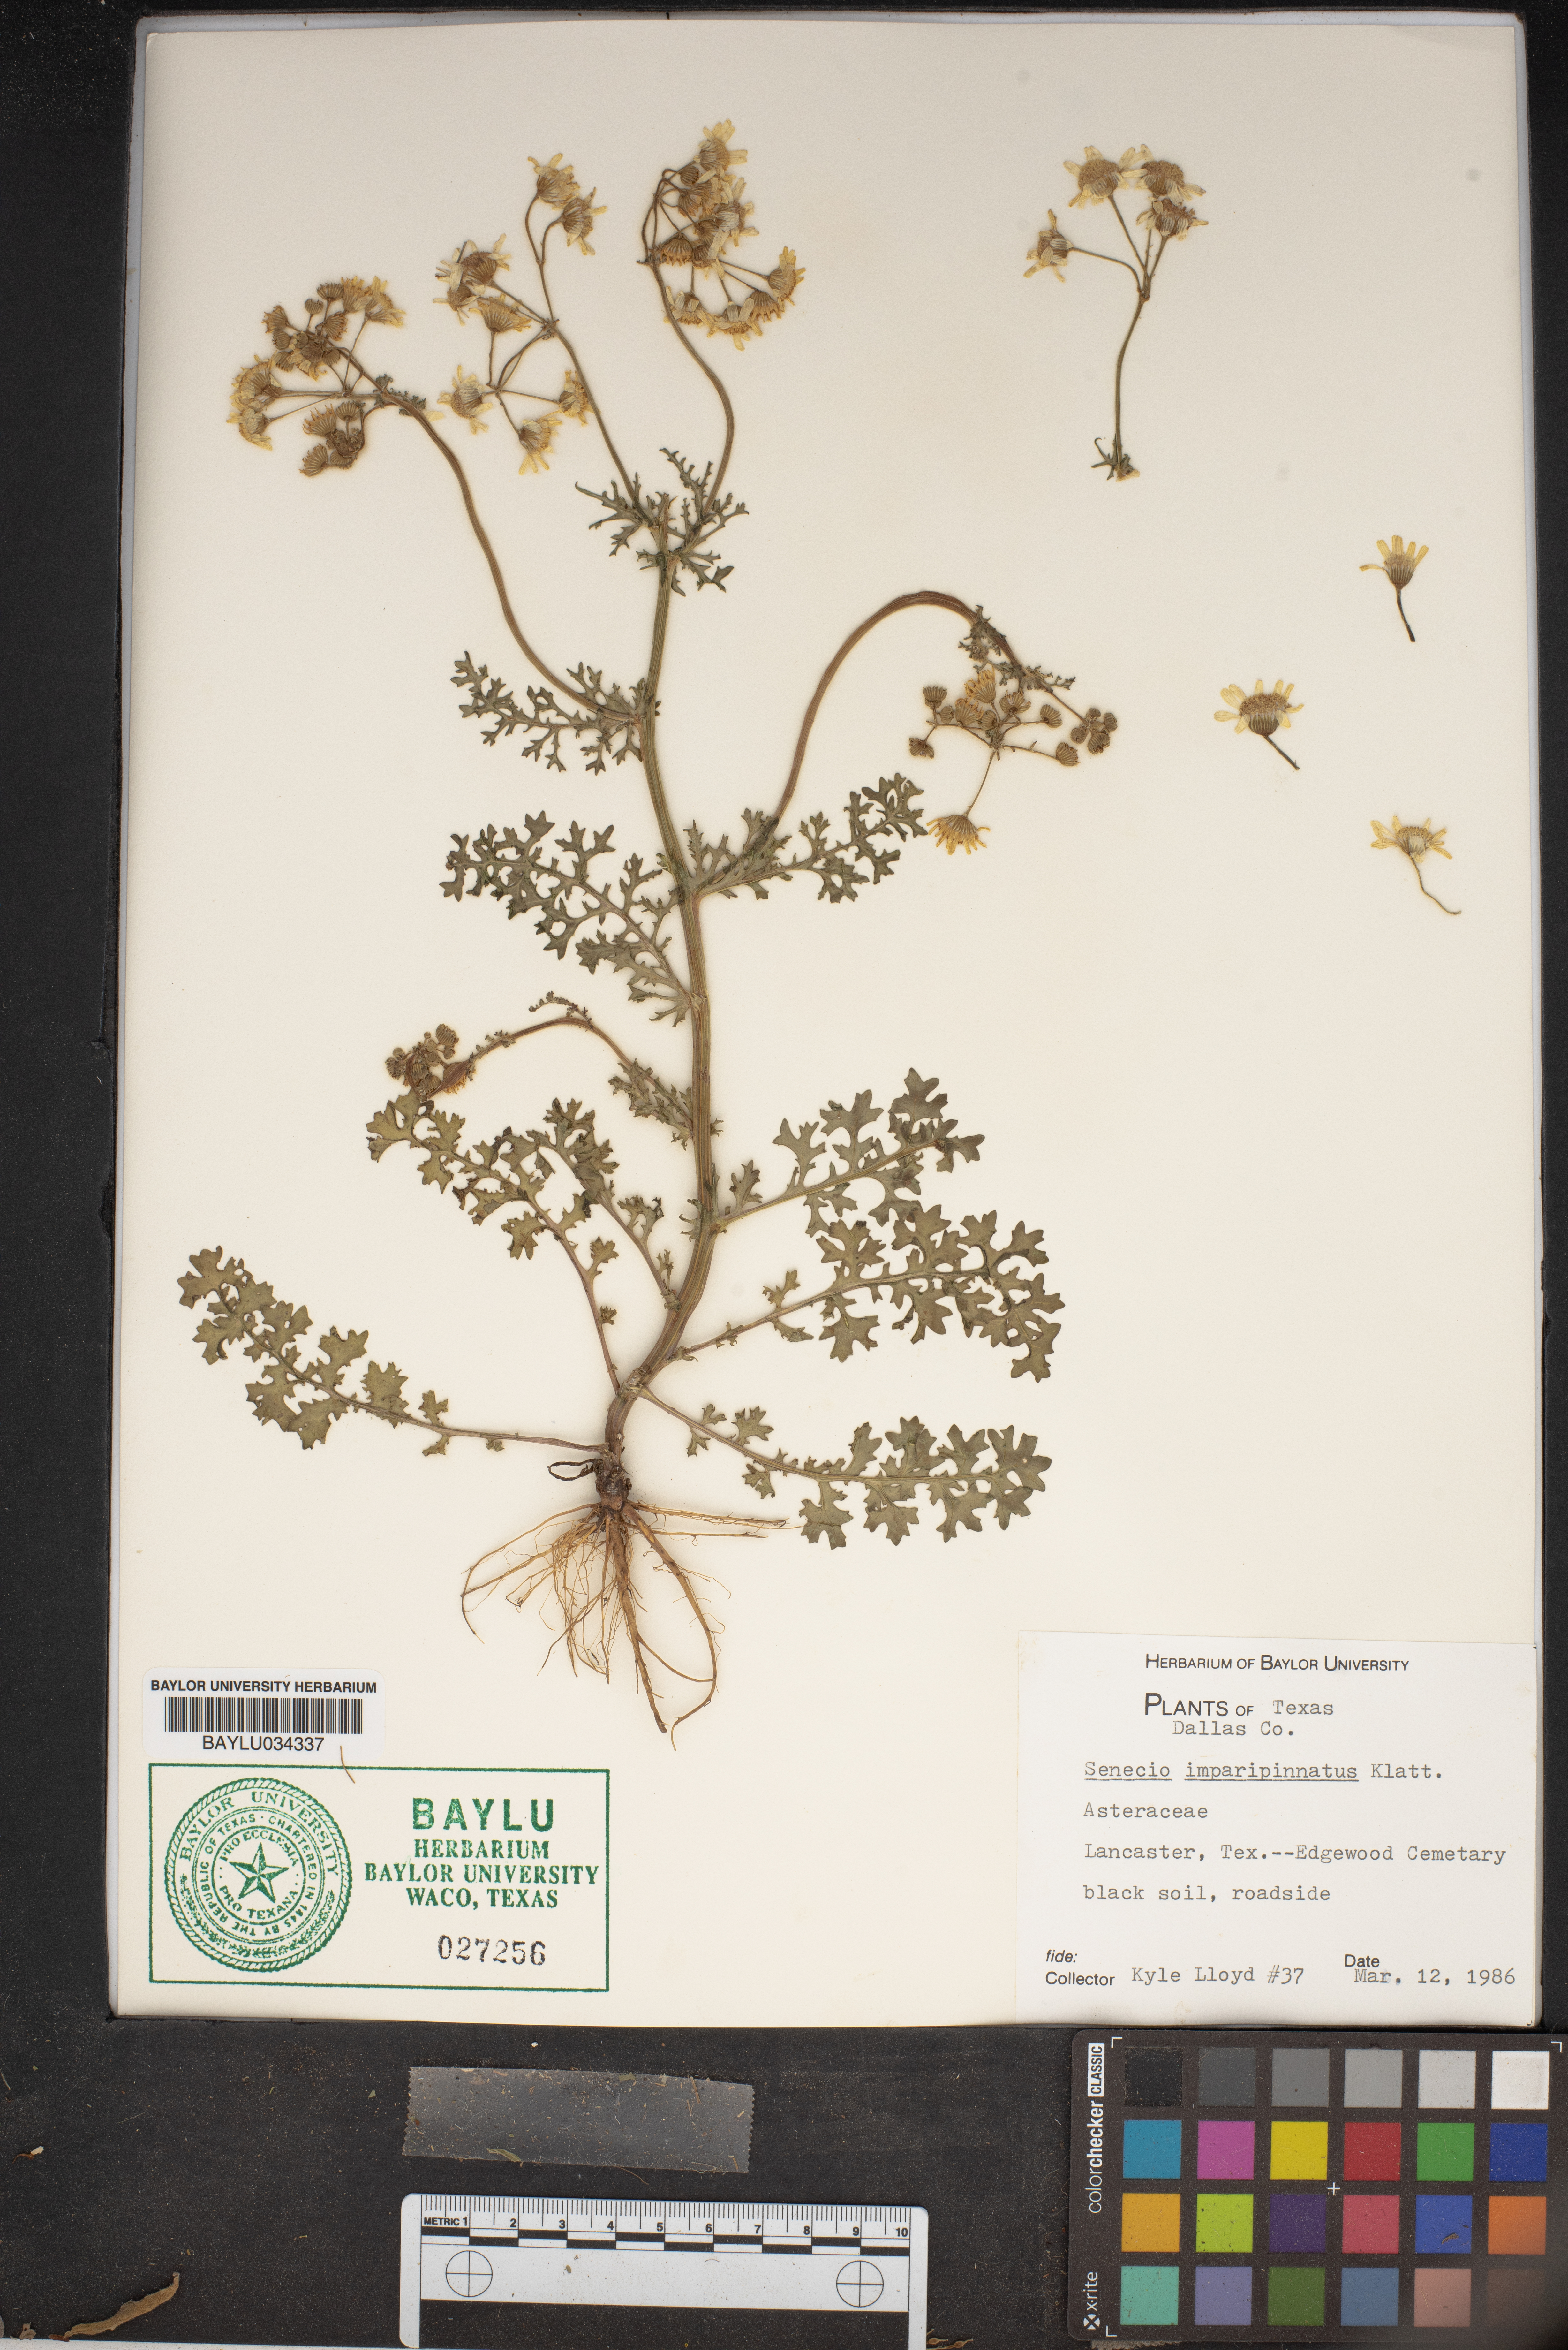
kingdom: Plantae
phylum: Tracheophyta
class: Magnoliopsida
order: Asterales
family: Asteraceae
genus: Packera
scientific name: Packera tampicana
